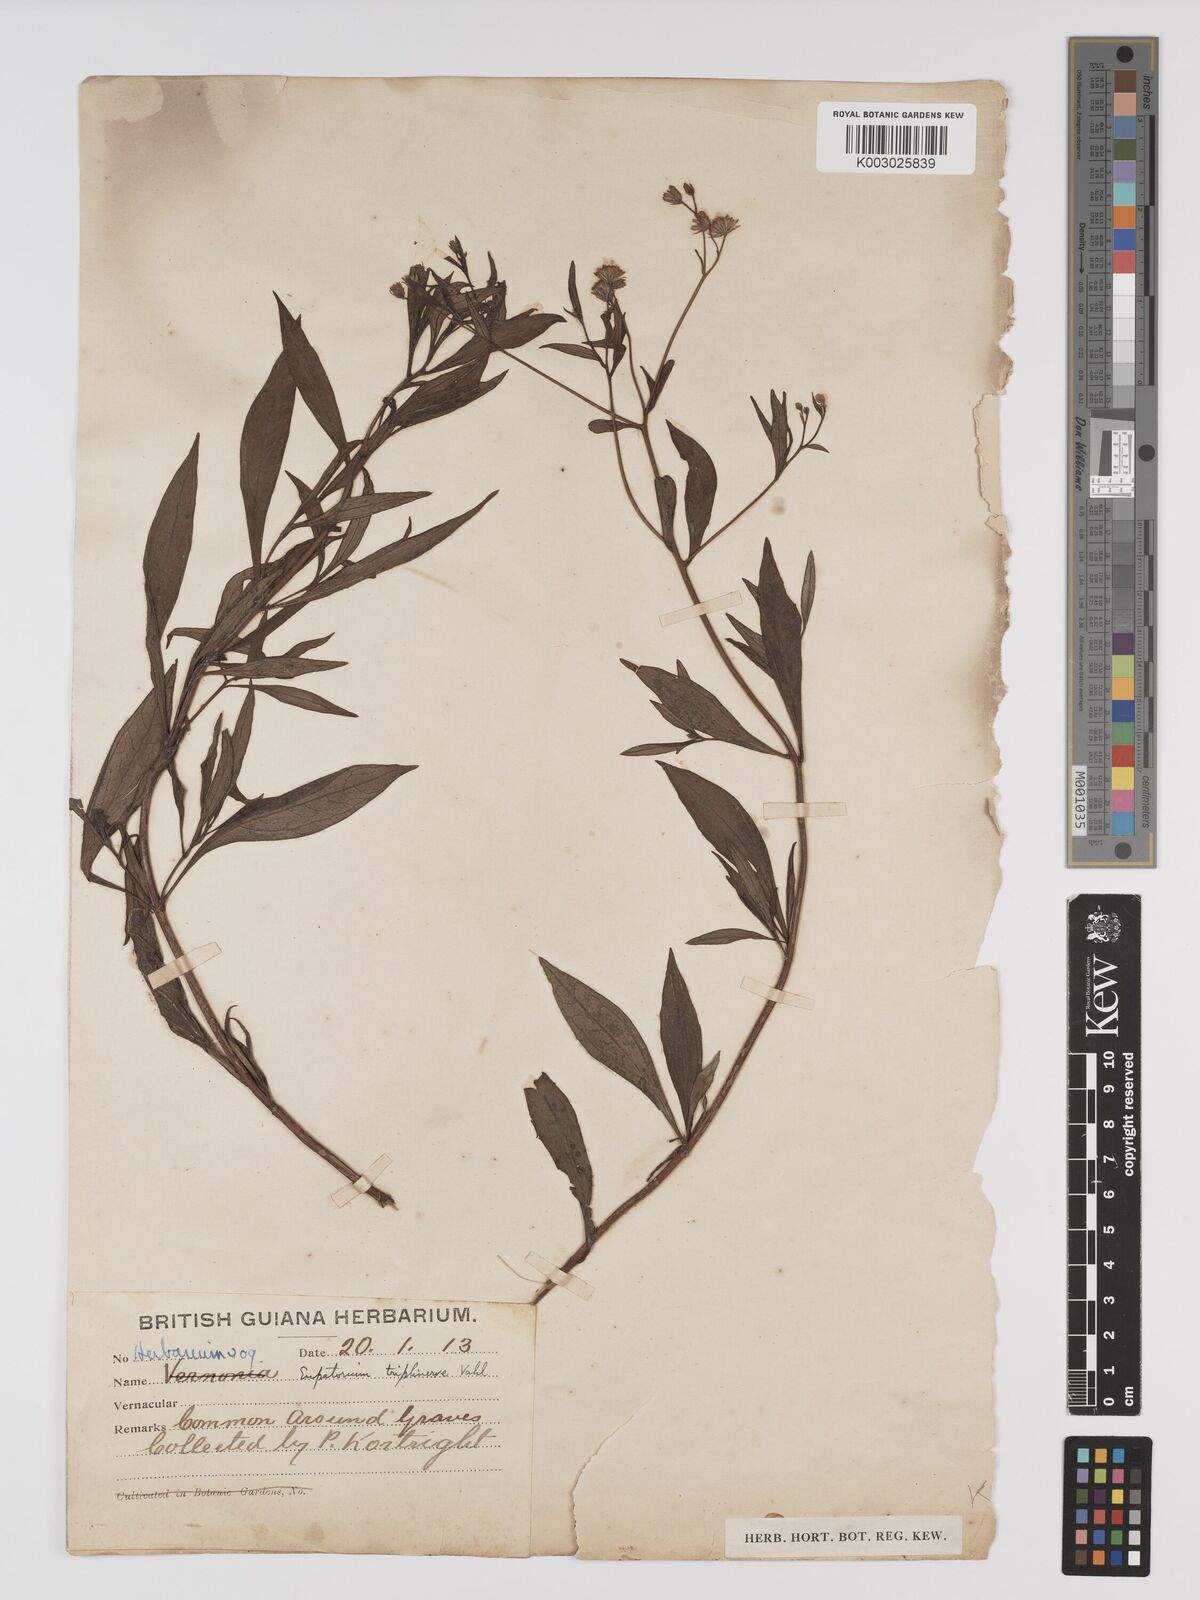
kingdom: Plantae
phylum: Tracheophyta
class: Magnoliopsida
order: Asterales
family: Asteraceae
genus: Ayapana
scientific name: Ayapana triplinervis
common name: Triplinerved eupatorium
